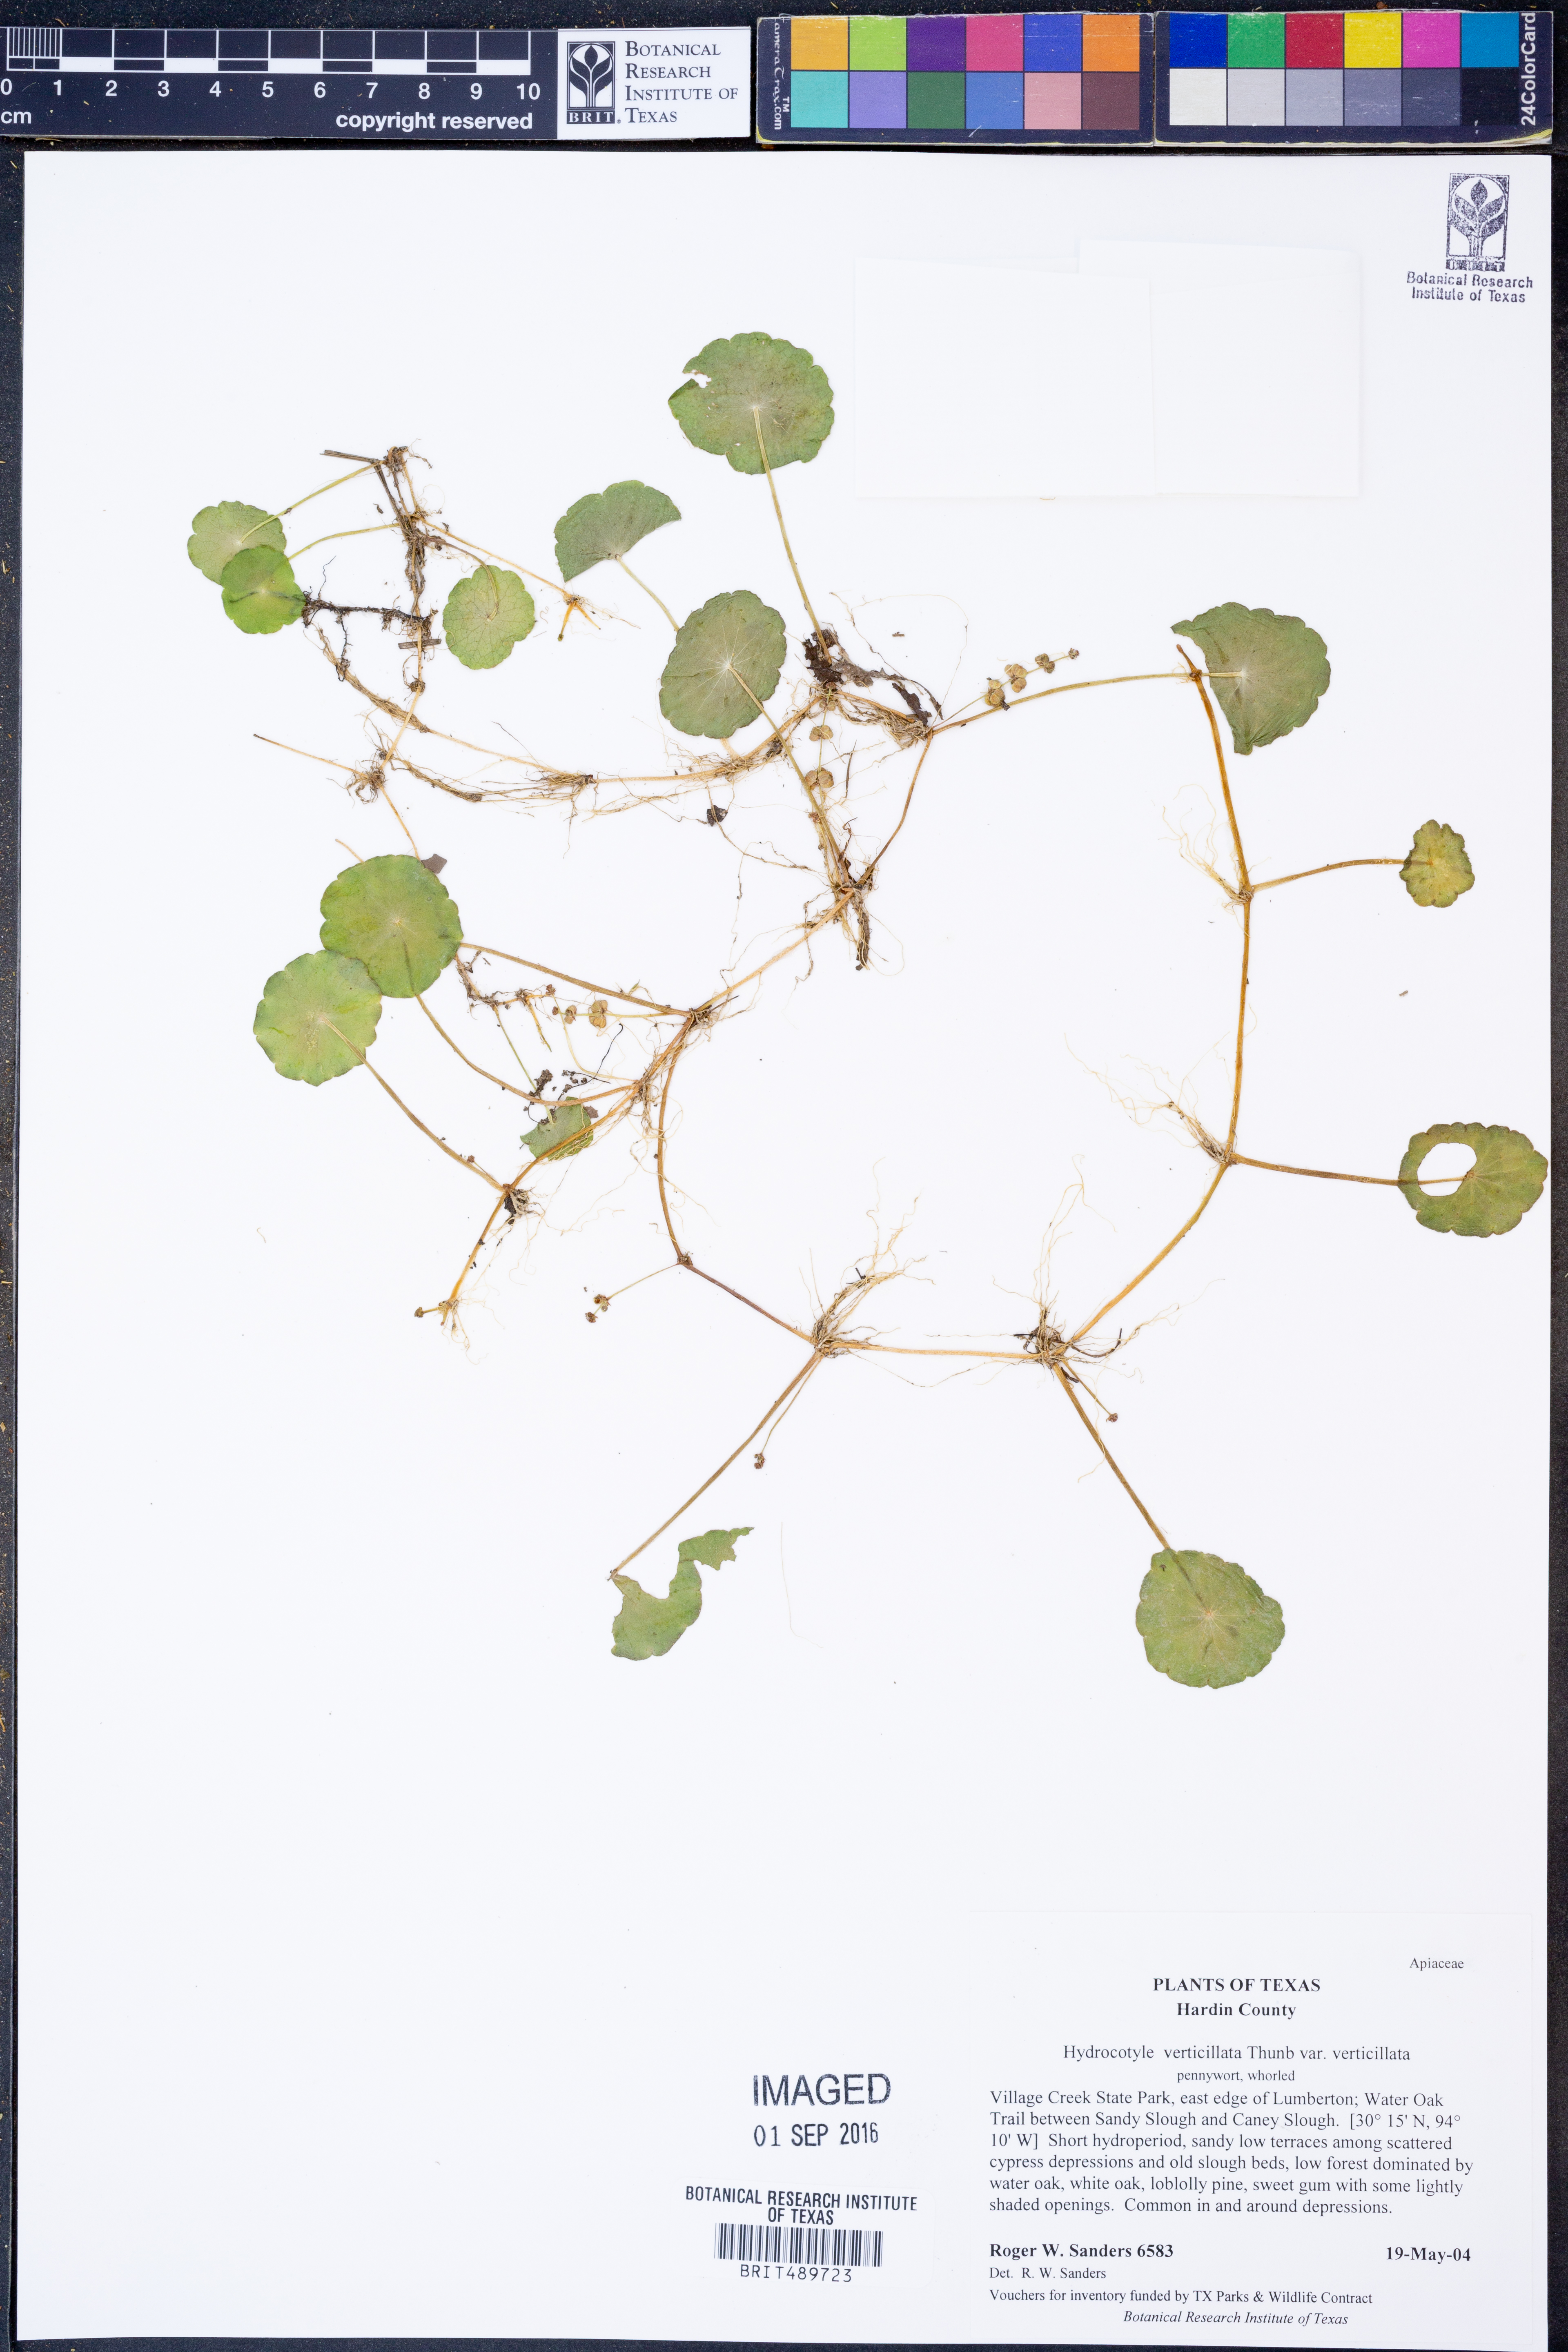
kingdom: Plantae
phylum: Tracheophyta
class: Magnoliopsida
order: Apiales
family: Araliaceae
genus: Hydrocotyle
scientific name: Hydrocotyle verticillata
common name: Whorled marshpennywort
